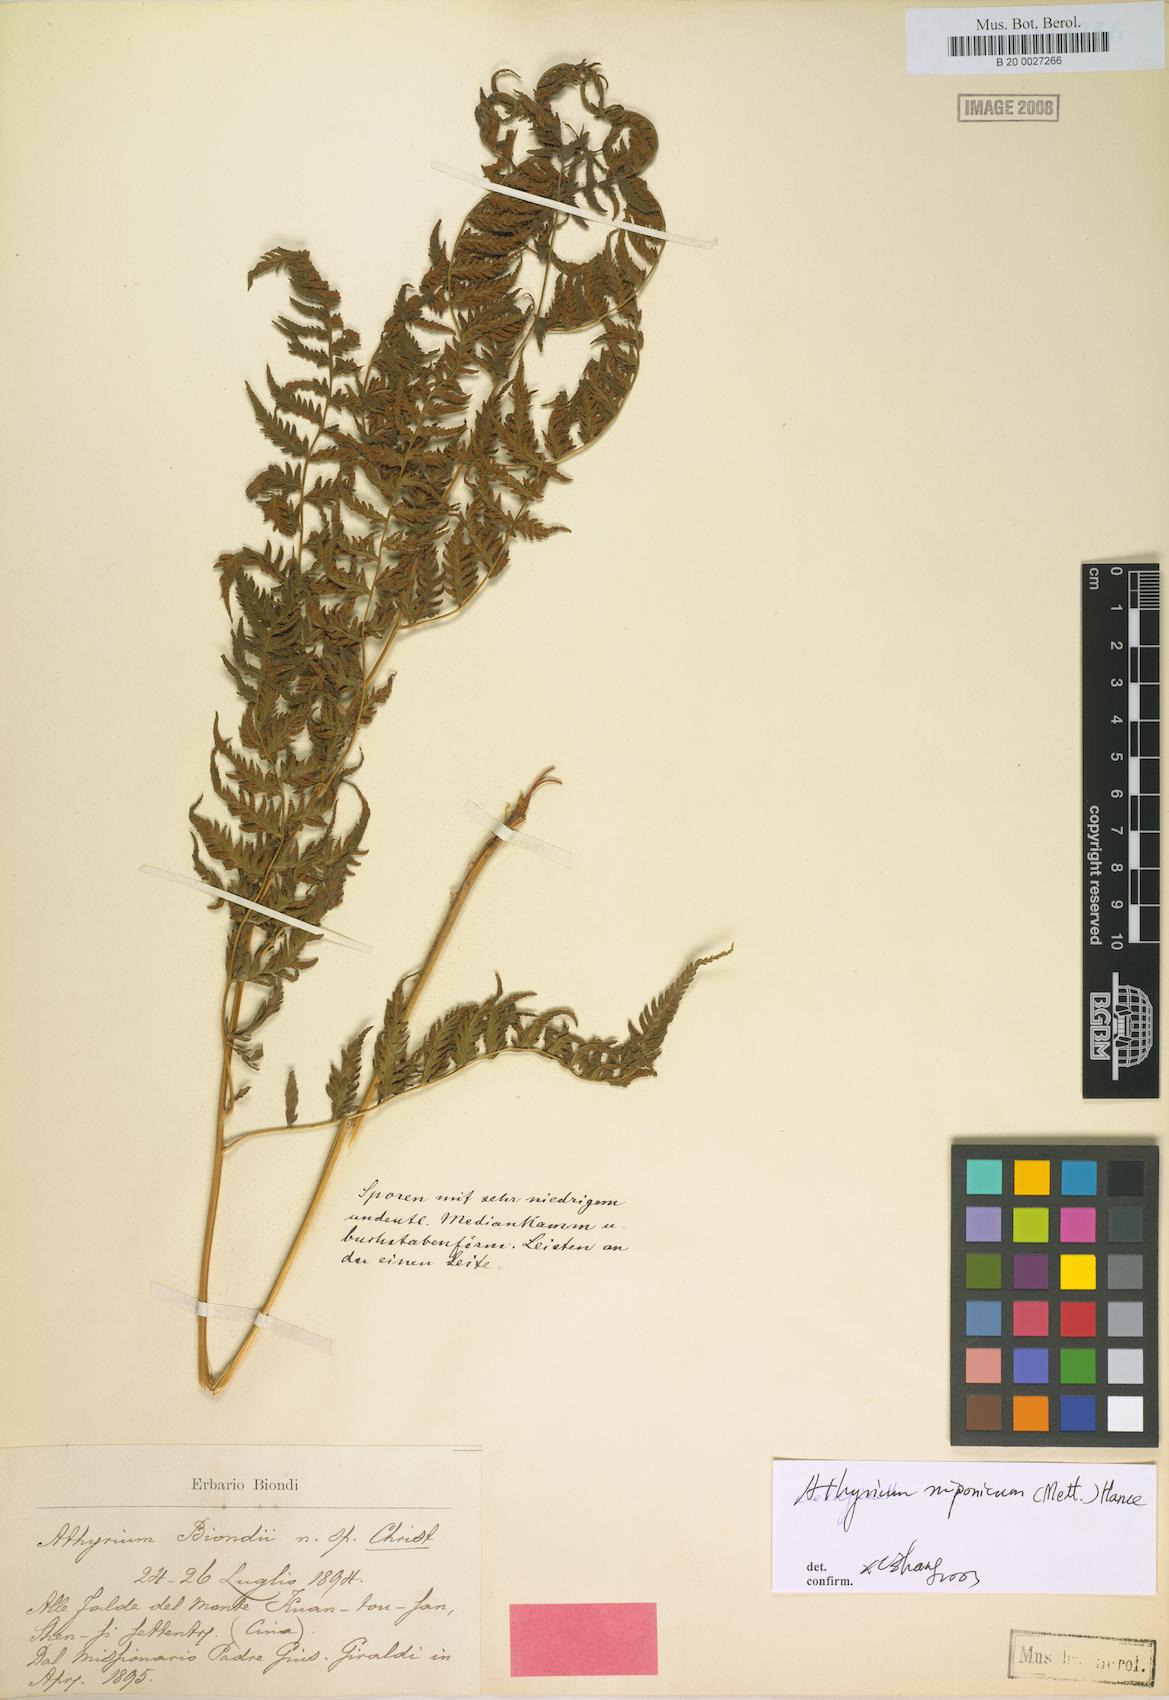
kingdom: Plantae
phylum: Tracheophyta
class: Polypodiopsida
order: Polypodiales
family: Athyriaceae
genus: Anisocampium
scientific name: Anisocampium niponicum
